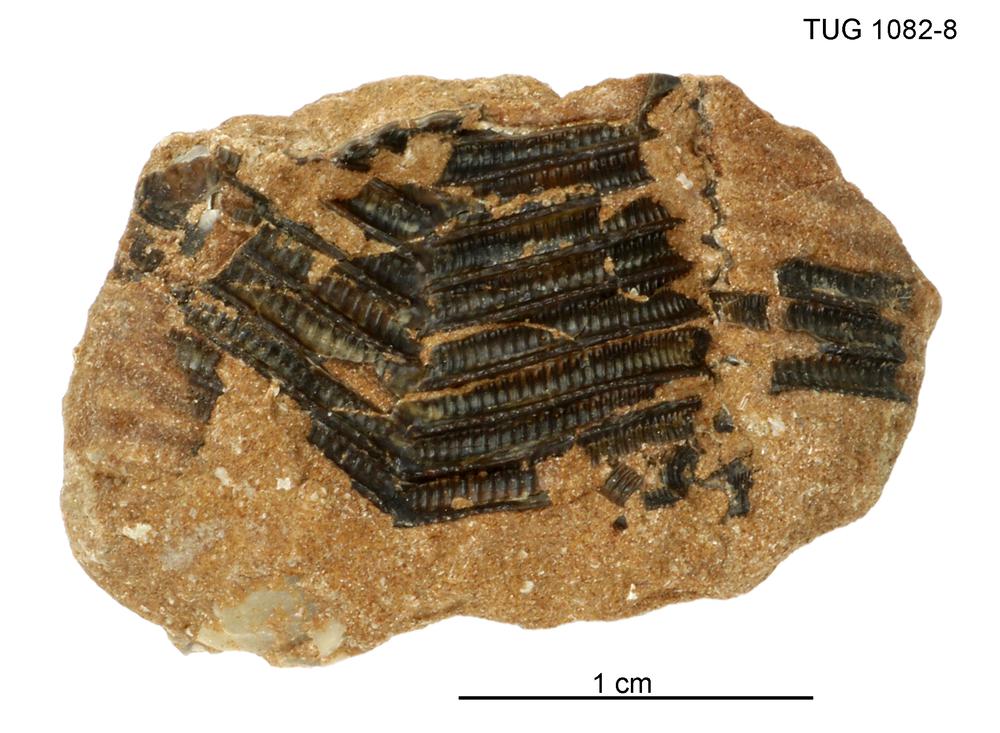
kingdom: Animalia
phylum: Cnidaria
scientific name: Cnidaria
